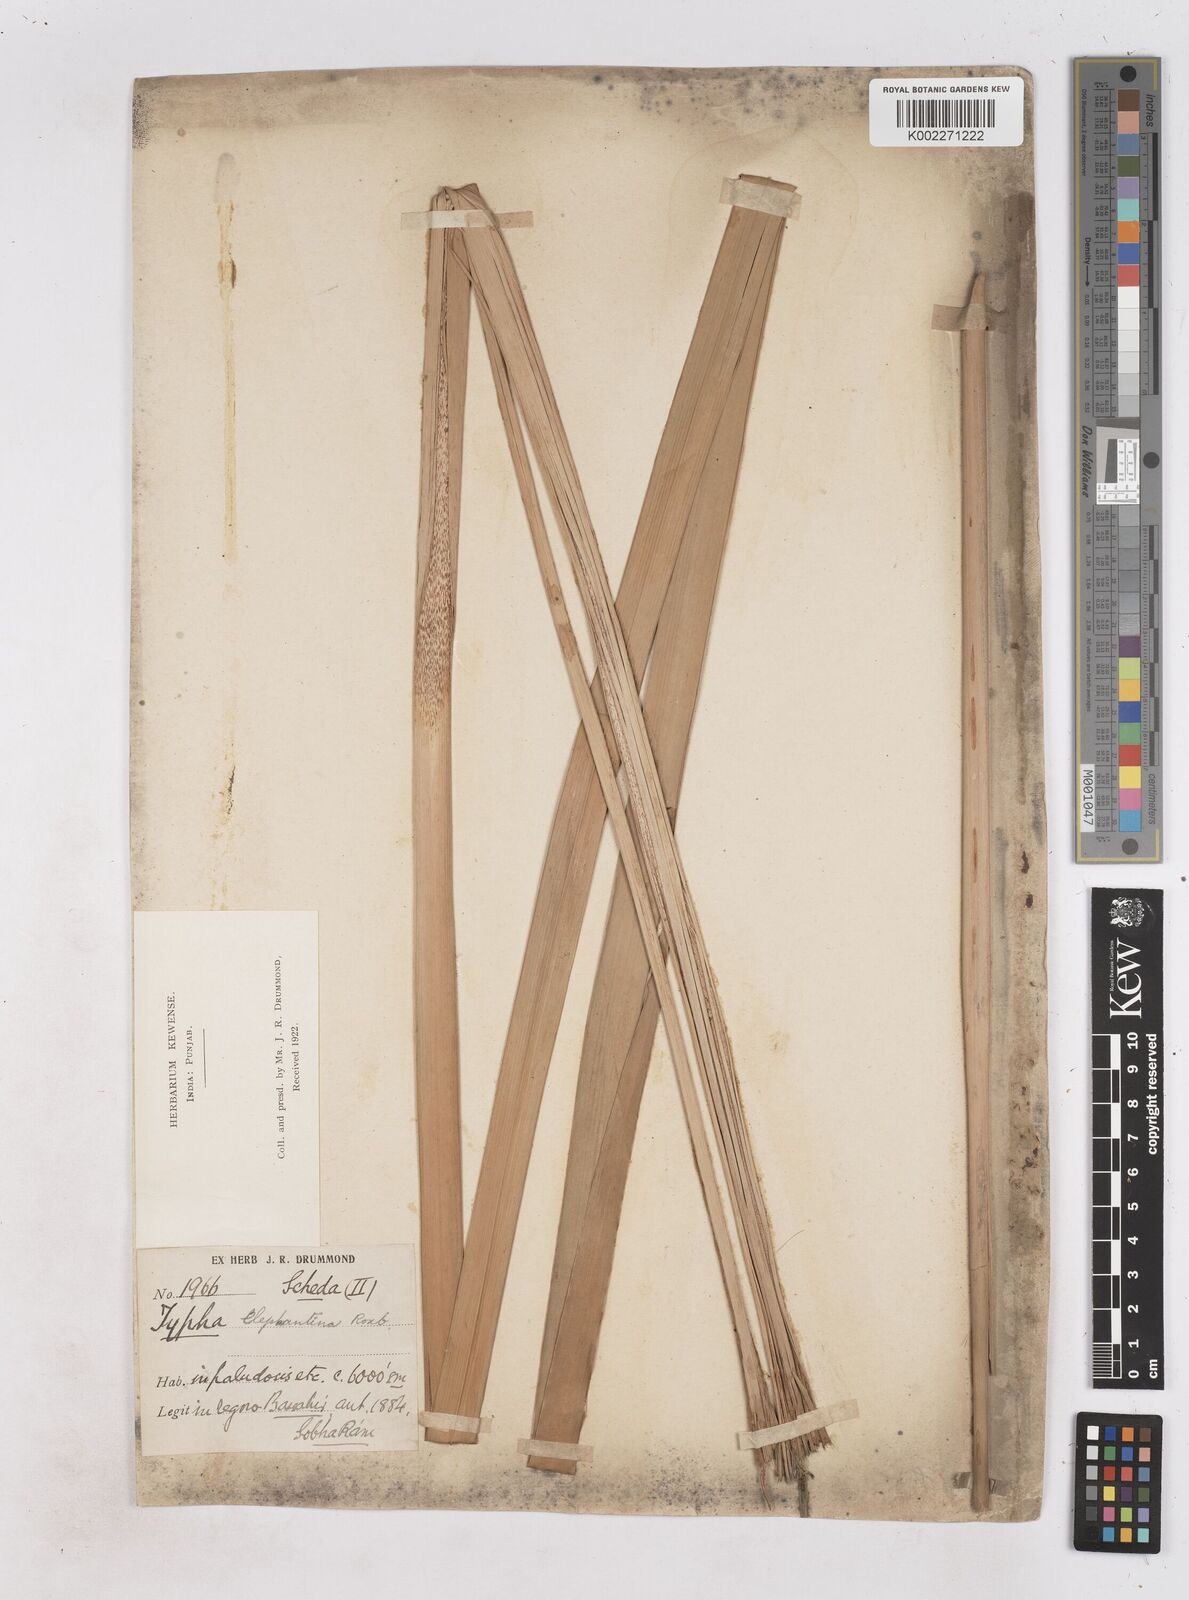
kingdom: Plantae
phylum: Tracheophyta
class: Liliopsida
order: Poales
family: Typhaceae
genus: Typha
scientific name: Typha elephantina
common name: Indian reed-grass
